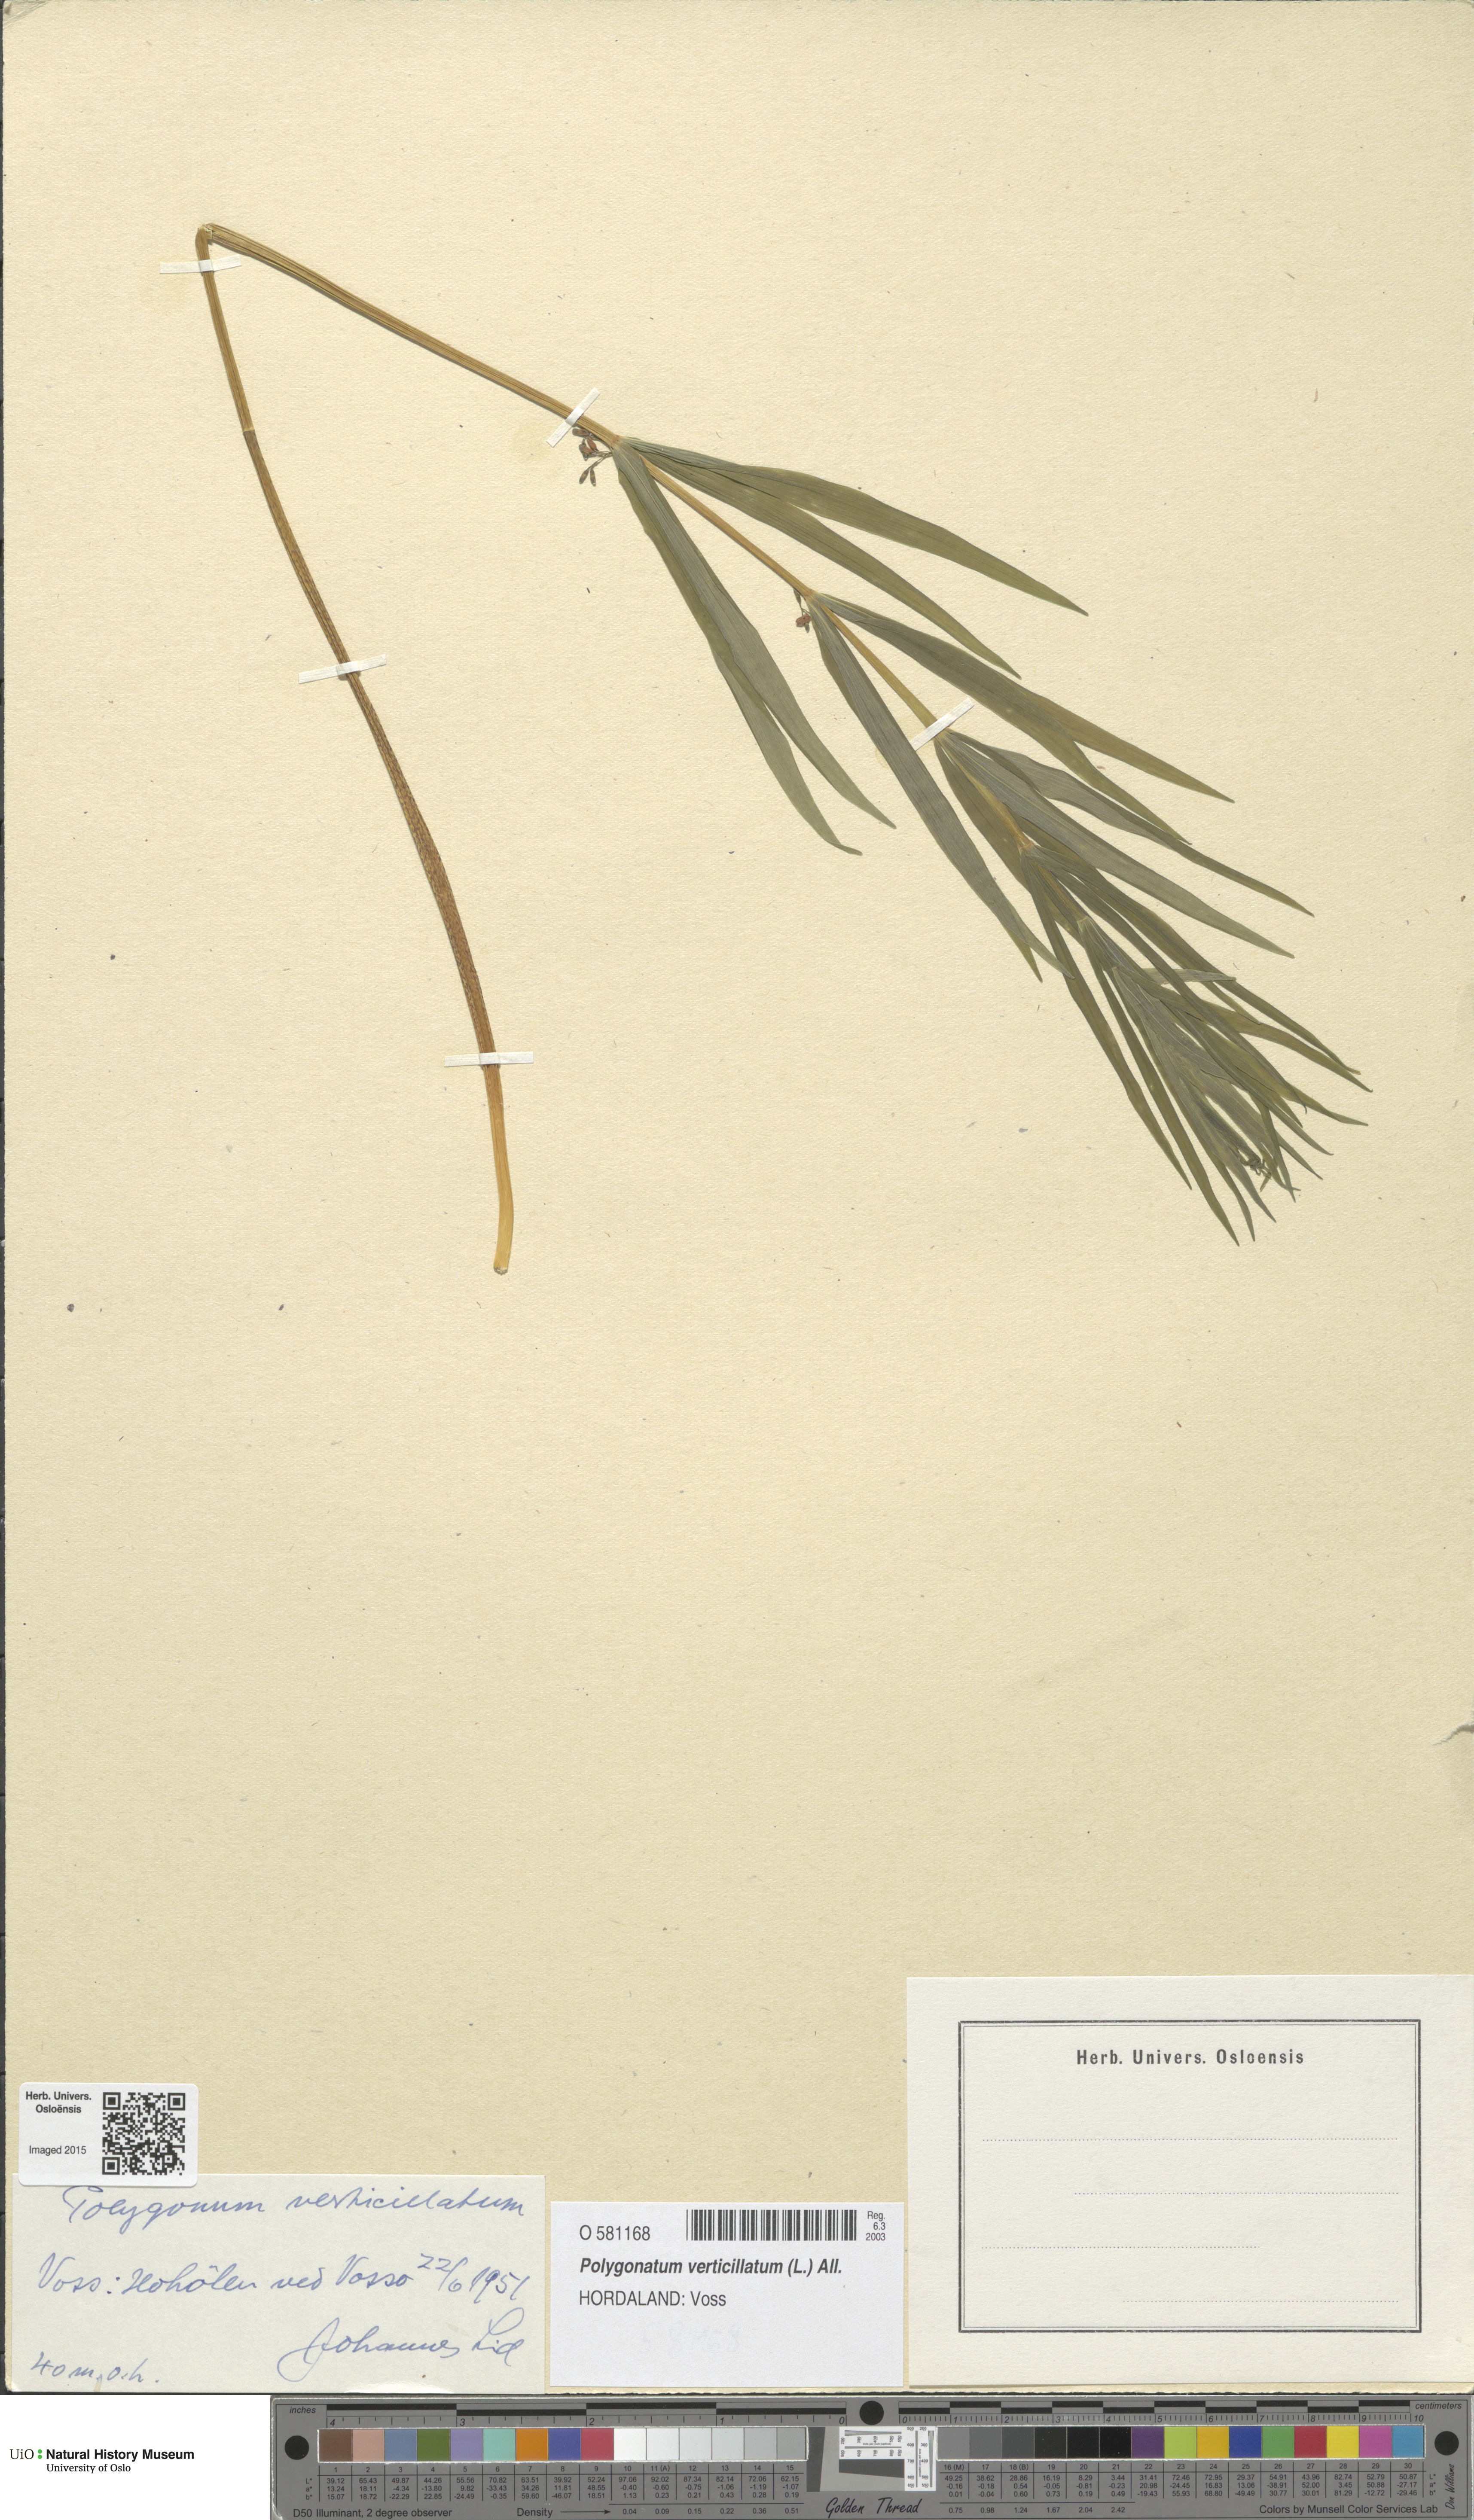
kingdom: Plantae
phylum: Tracheophyta
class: Liliopsida
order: Asparagales
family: Asparagaceae
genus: Polygonatum
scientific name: Polygonatum verticillatum
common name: Whorled solomon's-seal
